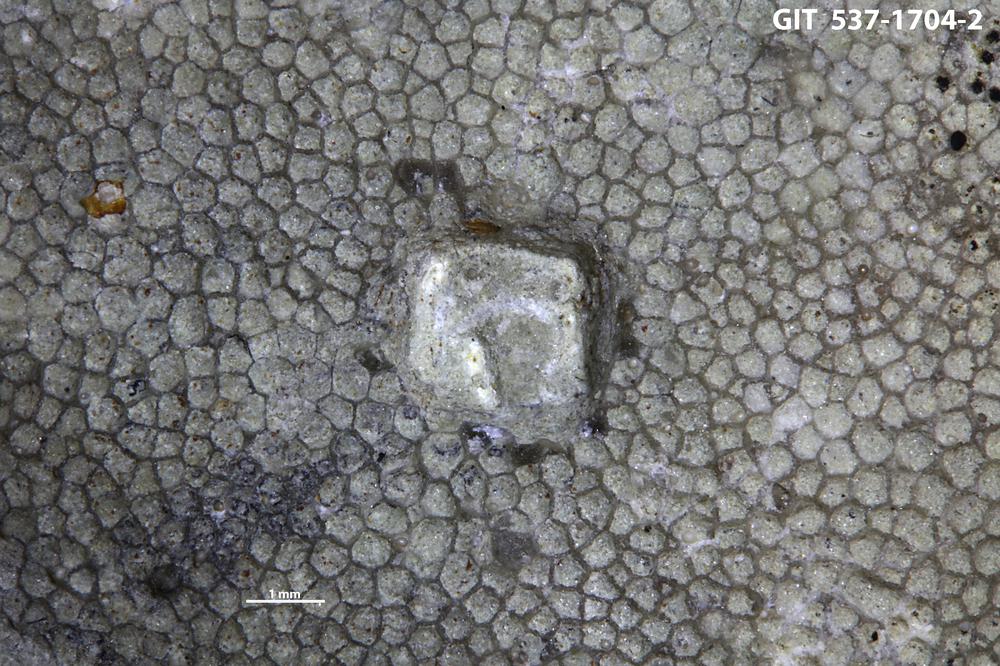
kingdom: Animalia
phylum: Cnidaria
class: Scyphozoa
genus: Climacoconus
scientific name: Climacoconus
